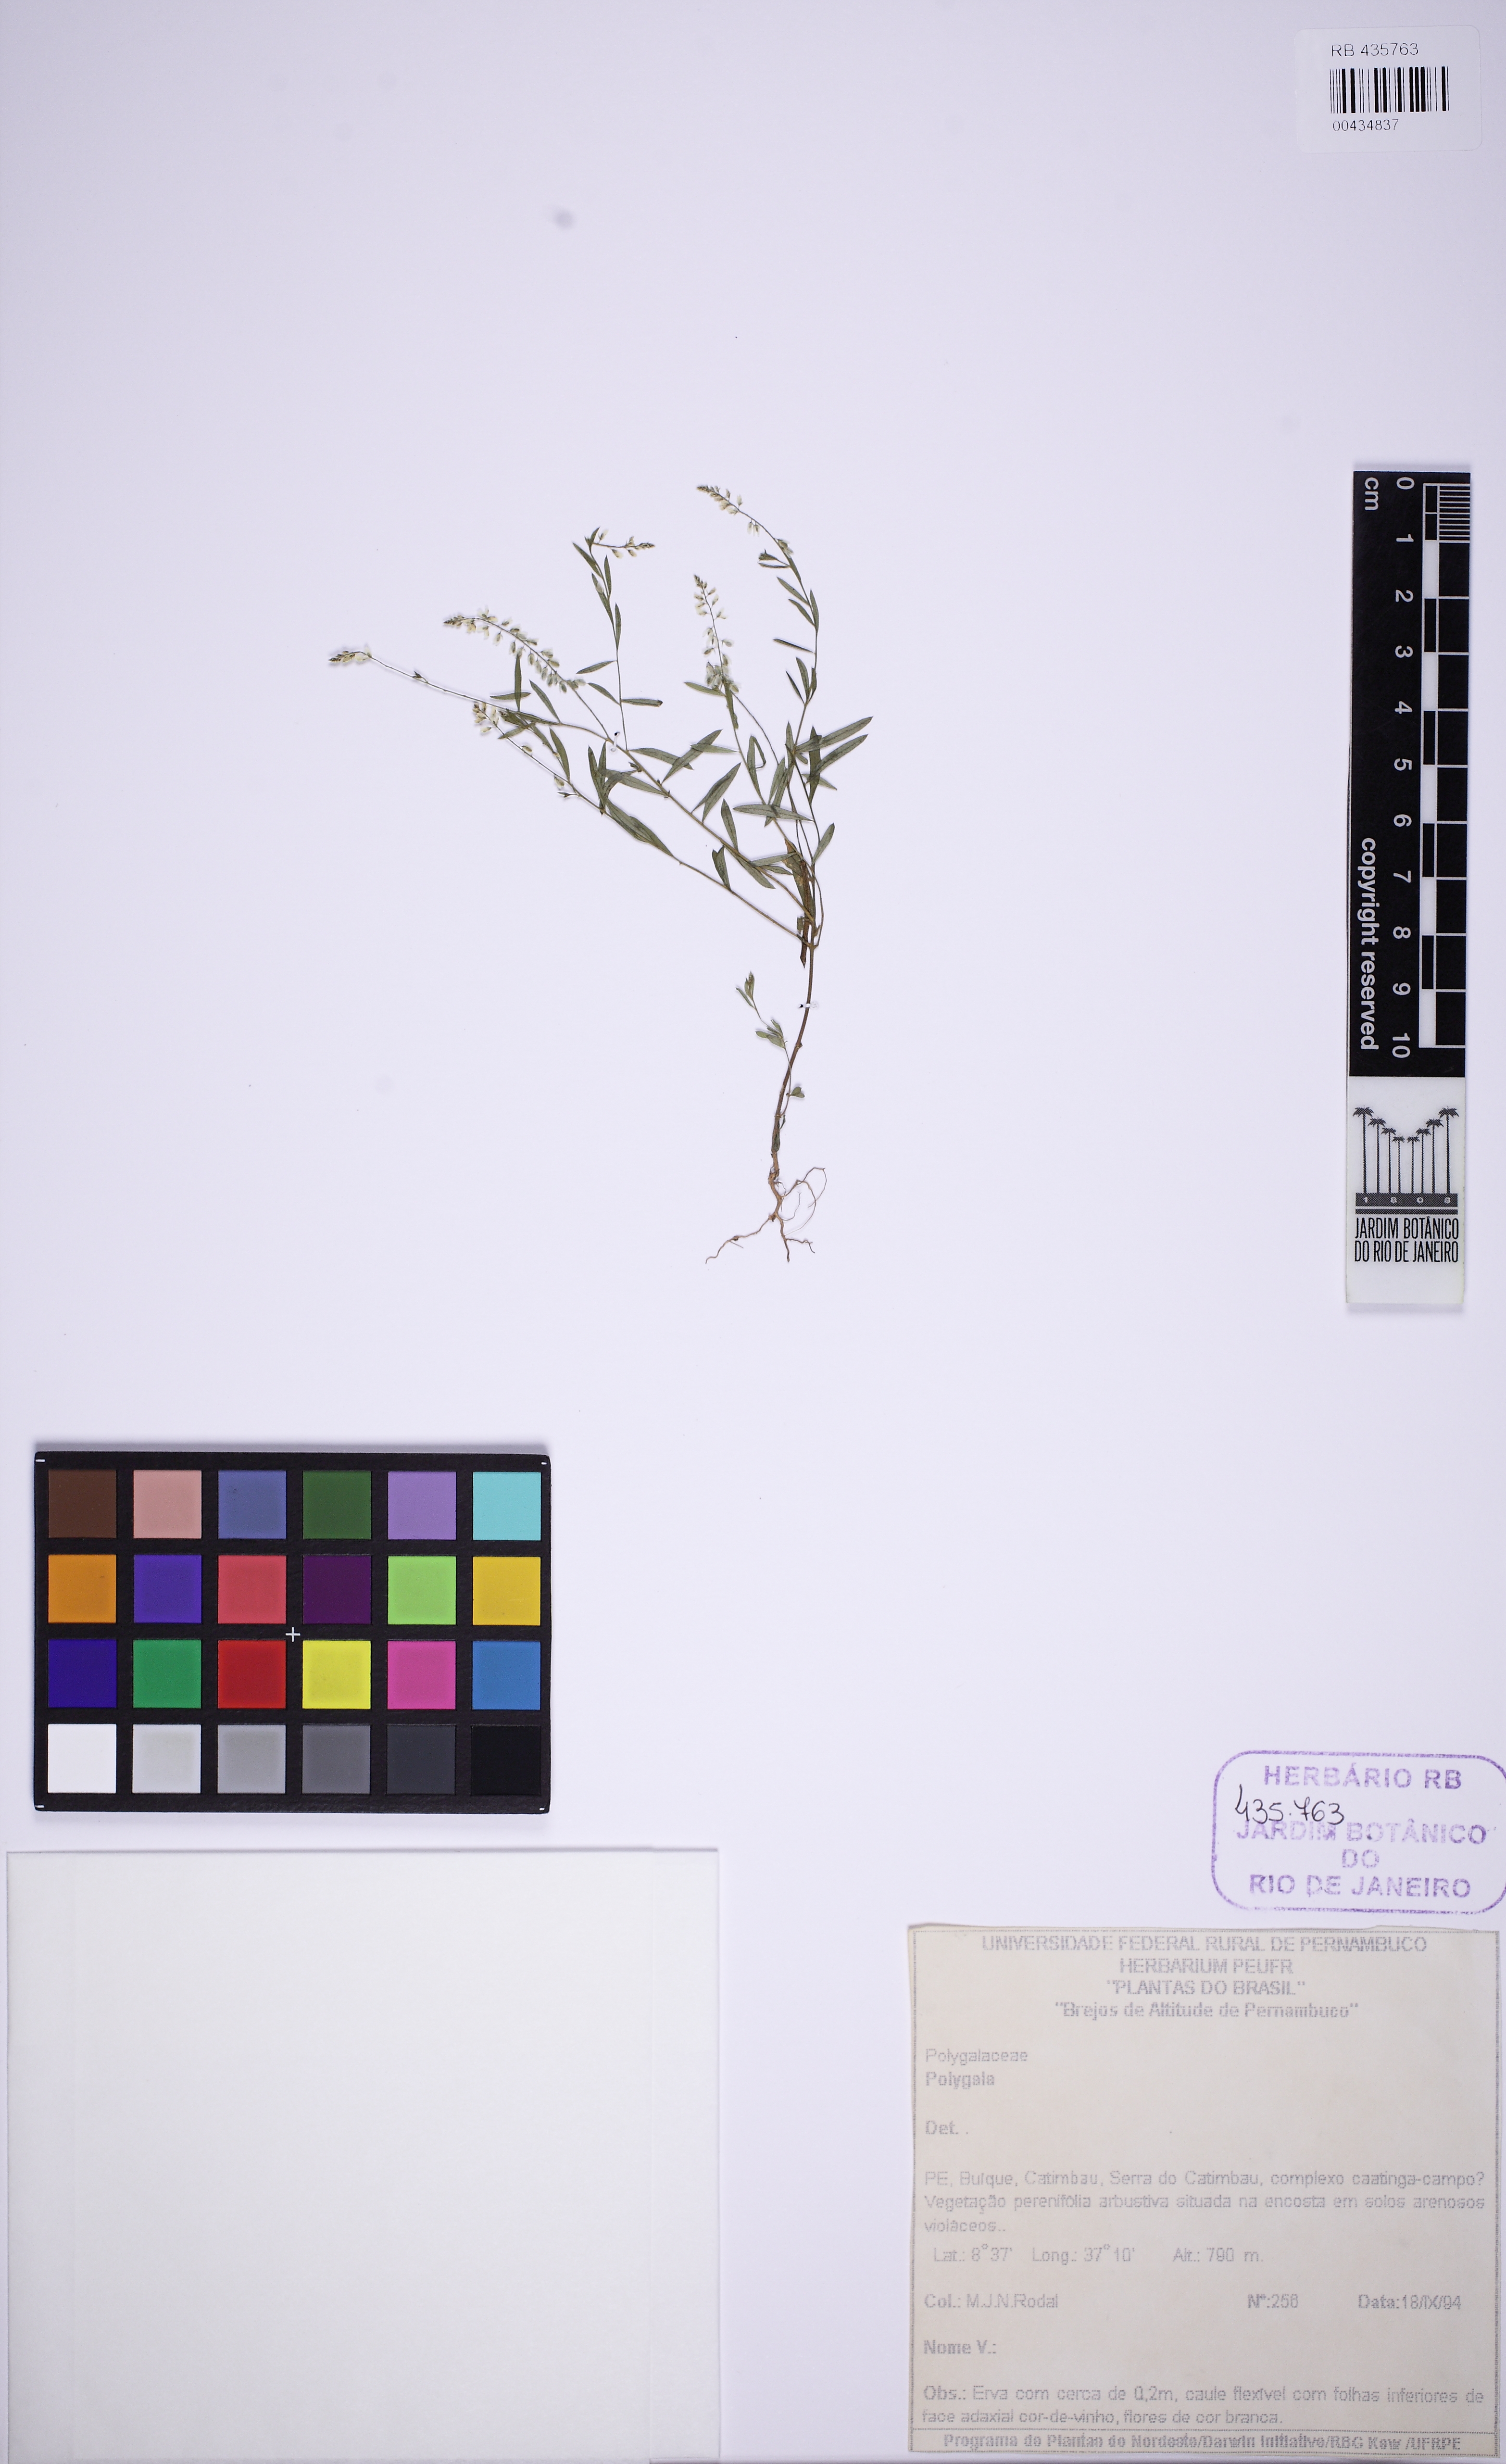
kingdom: Plantae
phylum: Tracheophyta
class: Magnoliopsida
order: Fabales
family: Polygalaceae
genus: Polygala
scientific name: Polygala paniculata
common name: Orosne
